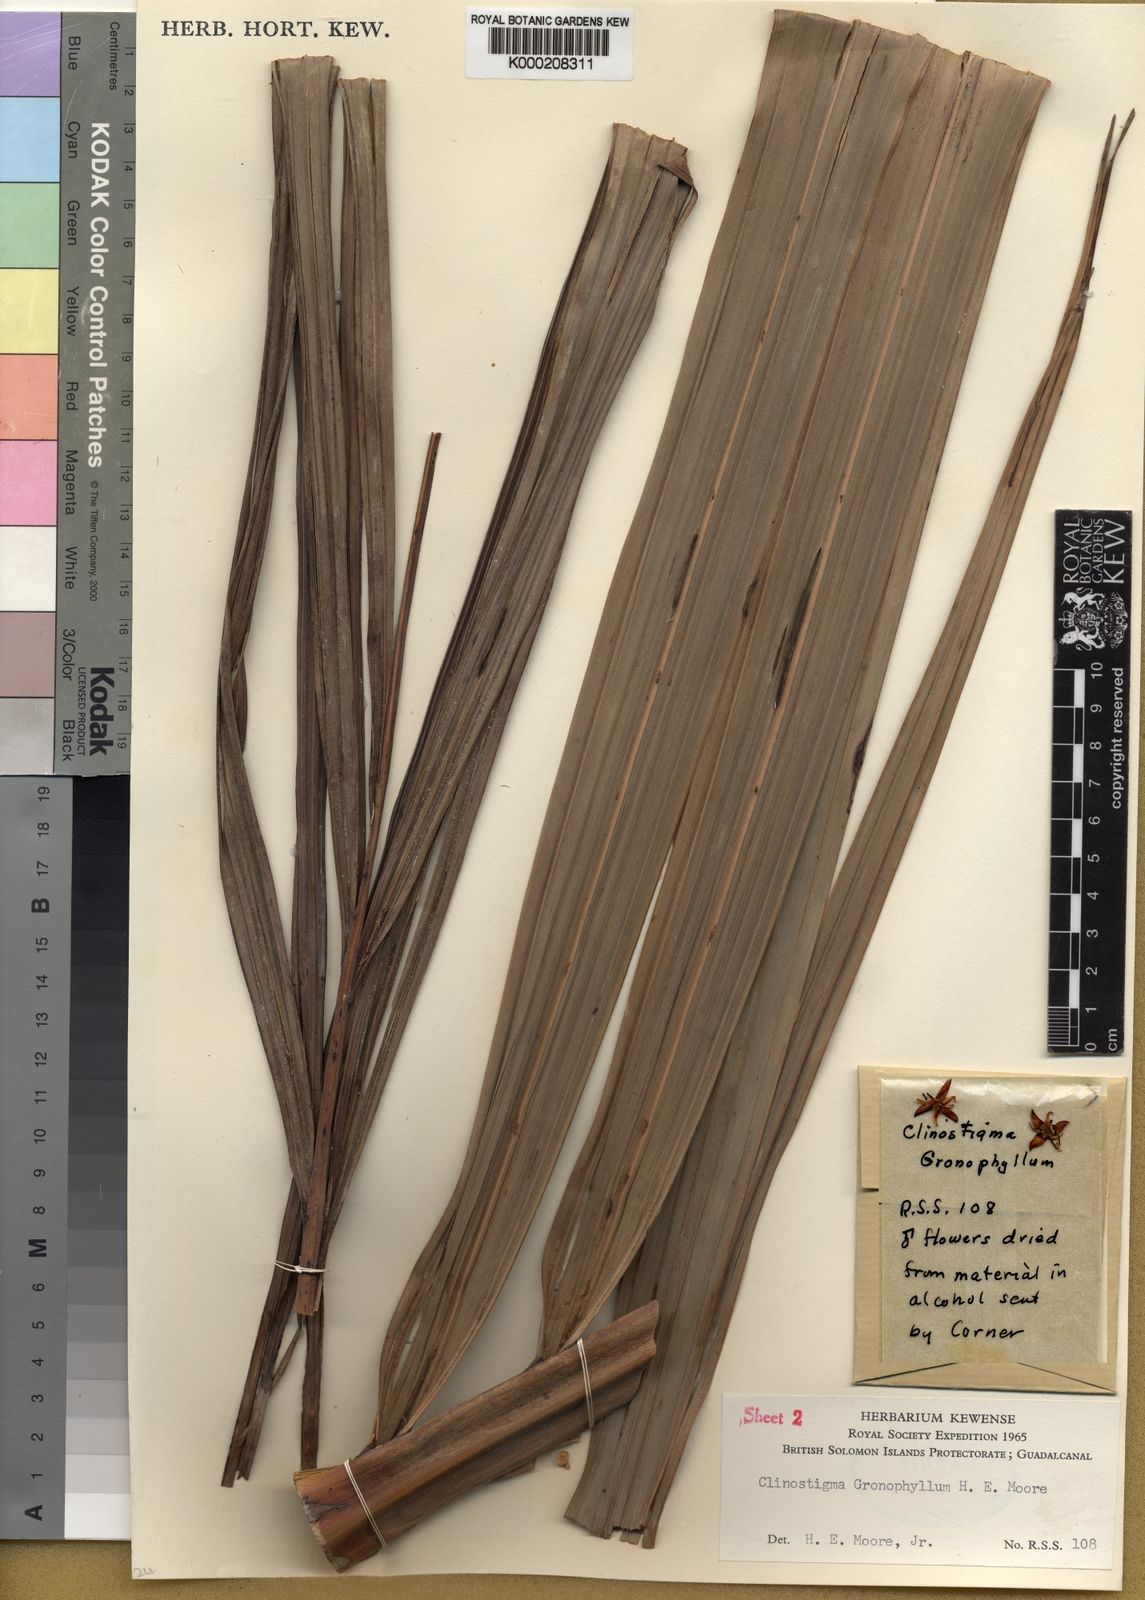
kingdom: Plantae
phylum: Tracheophyta
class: Liliopsida
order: Arecales
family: Arecaceae
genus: Clinostigma
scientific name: Clinostigma gronophyllum
